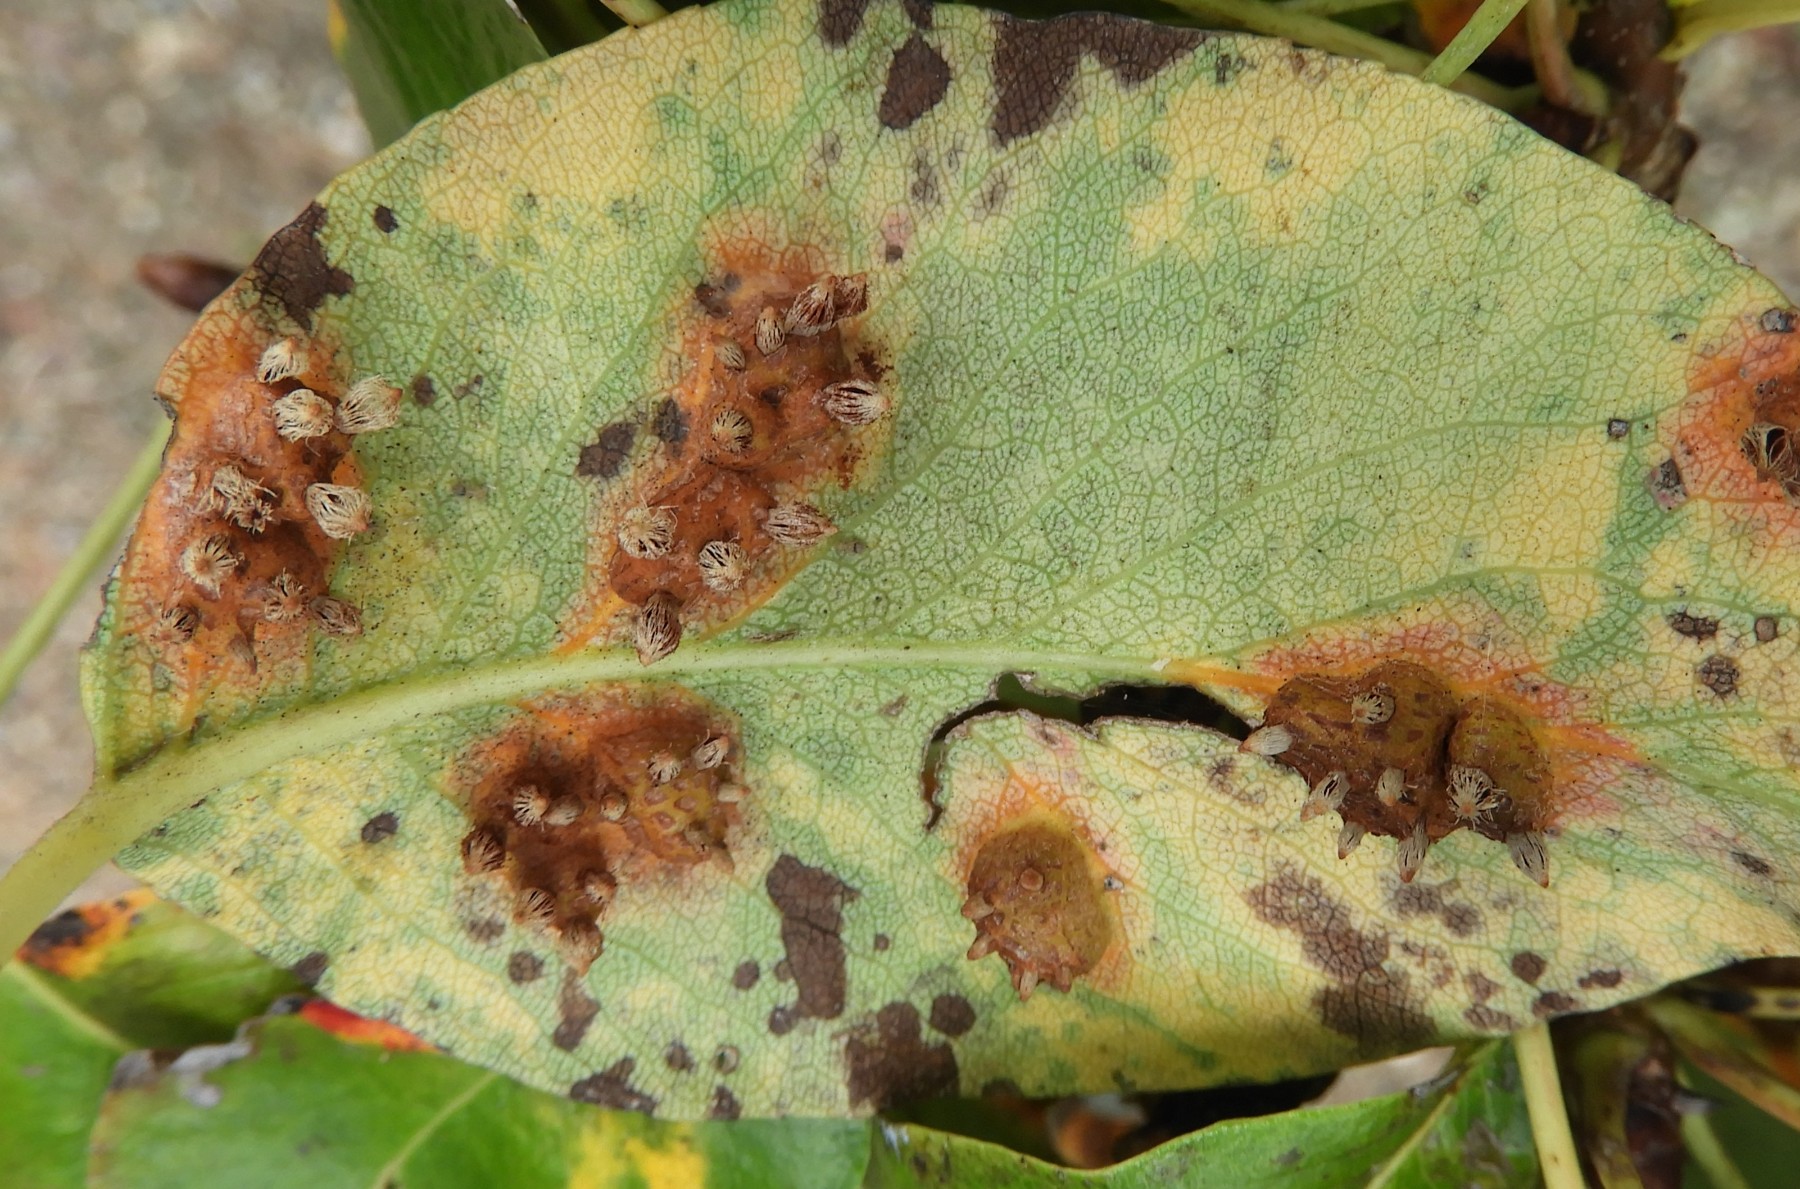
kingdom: Fungi
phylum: Basidiomycota
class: Pucciniomycetes
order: Pucciniales
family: Gymnosporangiaceae
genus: Gymnosporangium
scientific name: Gymnosporangium sabinae
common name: pæregitter-bævrerust
